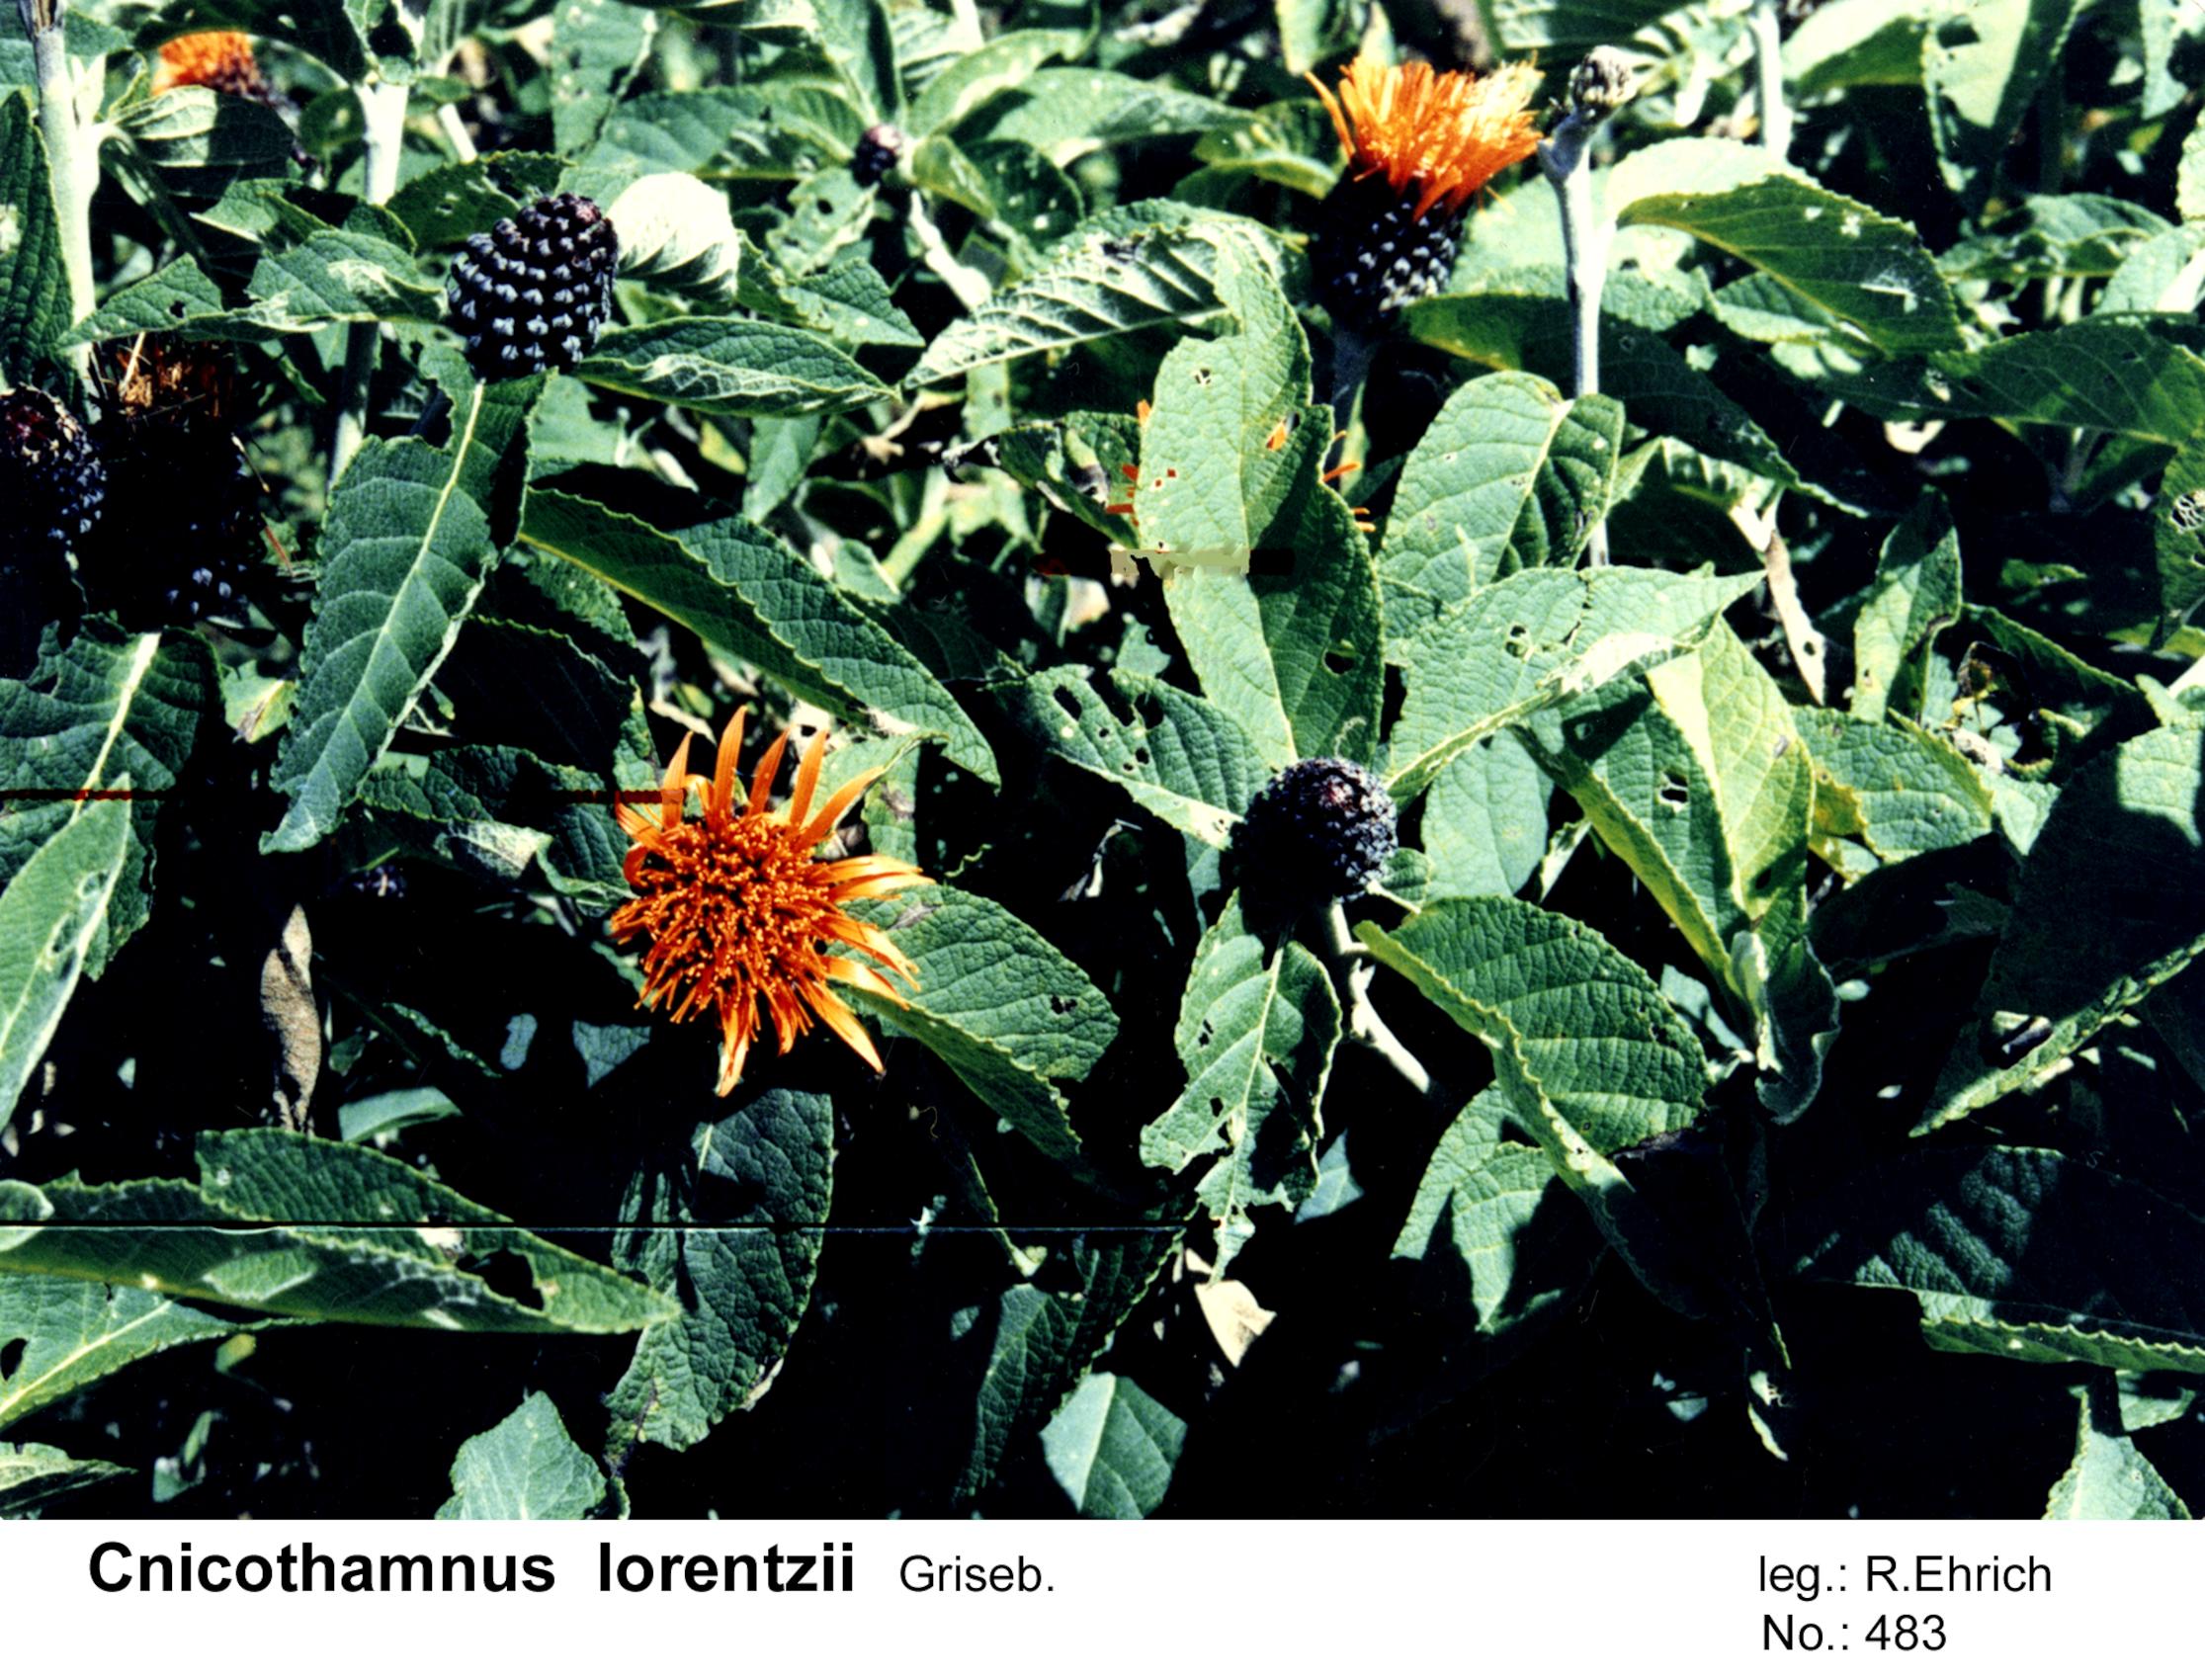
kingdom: Plantae
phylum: Tracheophyta
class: Magnoliopsida
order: Asterales
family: Asteraceae
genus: Cnicothamnus
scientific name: Cnicothamnus lorentzii
